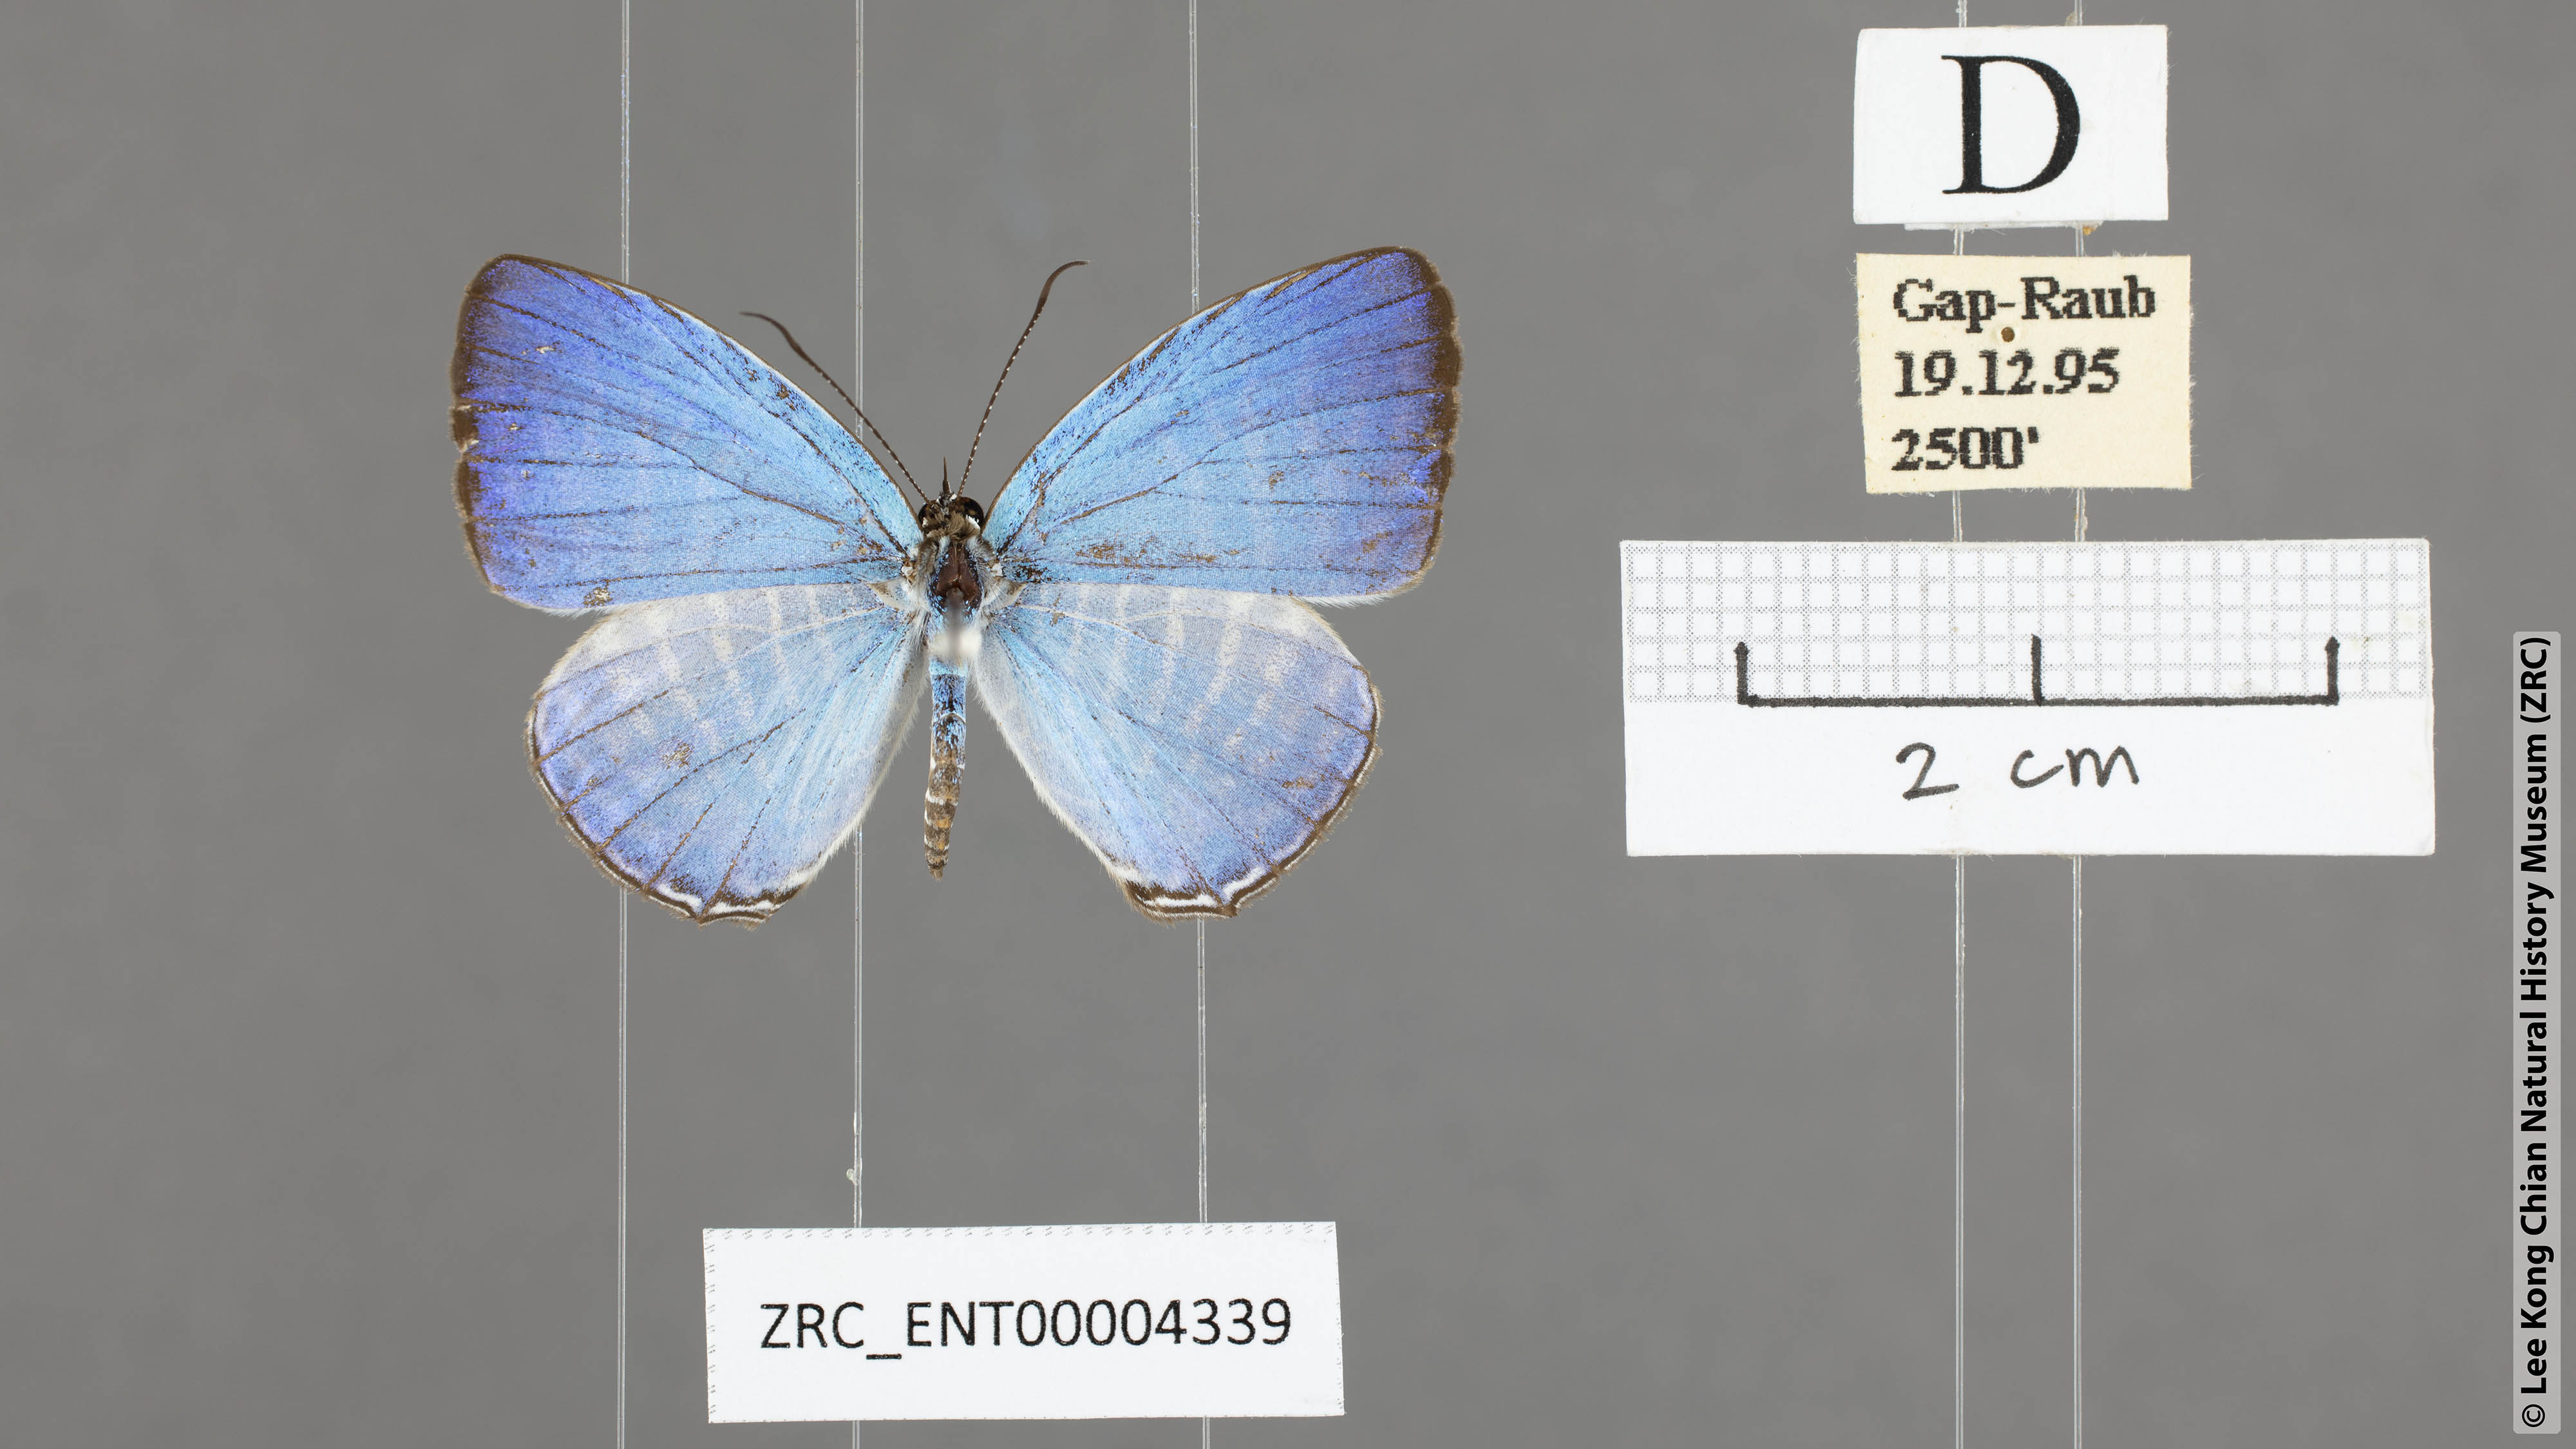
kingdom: Animalia
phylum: Arthropoda
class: Insecta
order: Lepidoptera
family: Lycaenidae
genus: Jamides
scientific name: Jamides malaccanus
